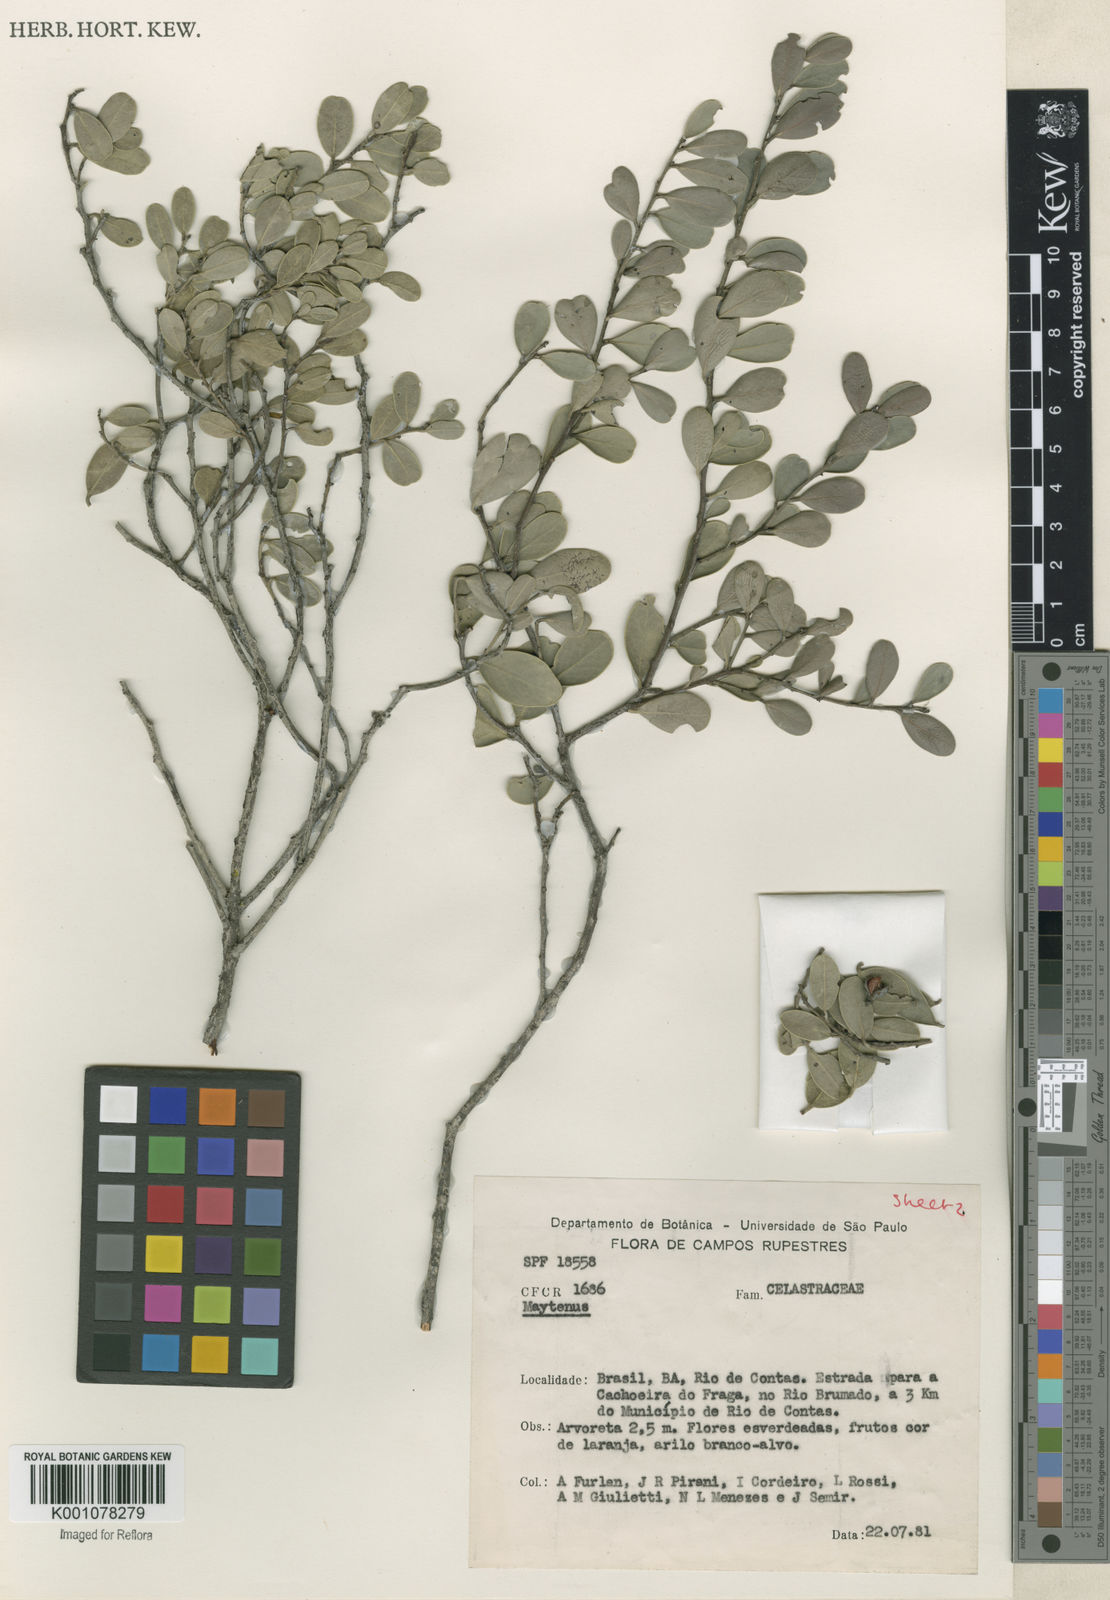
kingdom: Plantae
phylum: Tracheophyta
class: Magnoliopsida
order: Celastrales
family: Celastraceae
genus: Maytenus
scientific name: Maytenus
